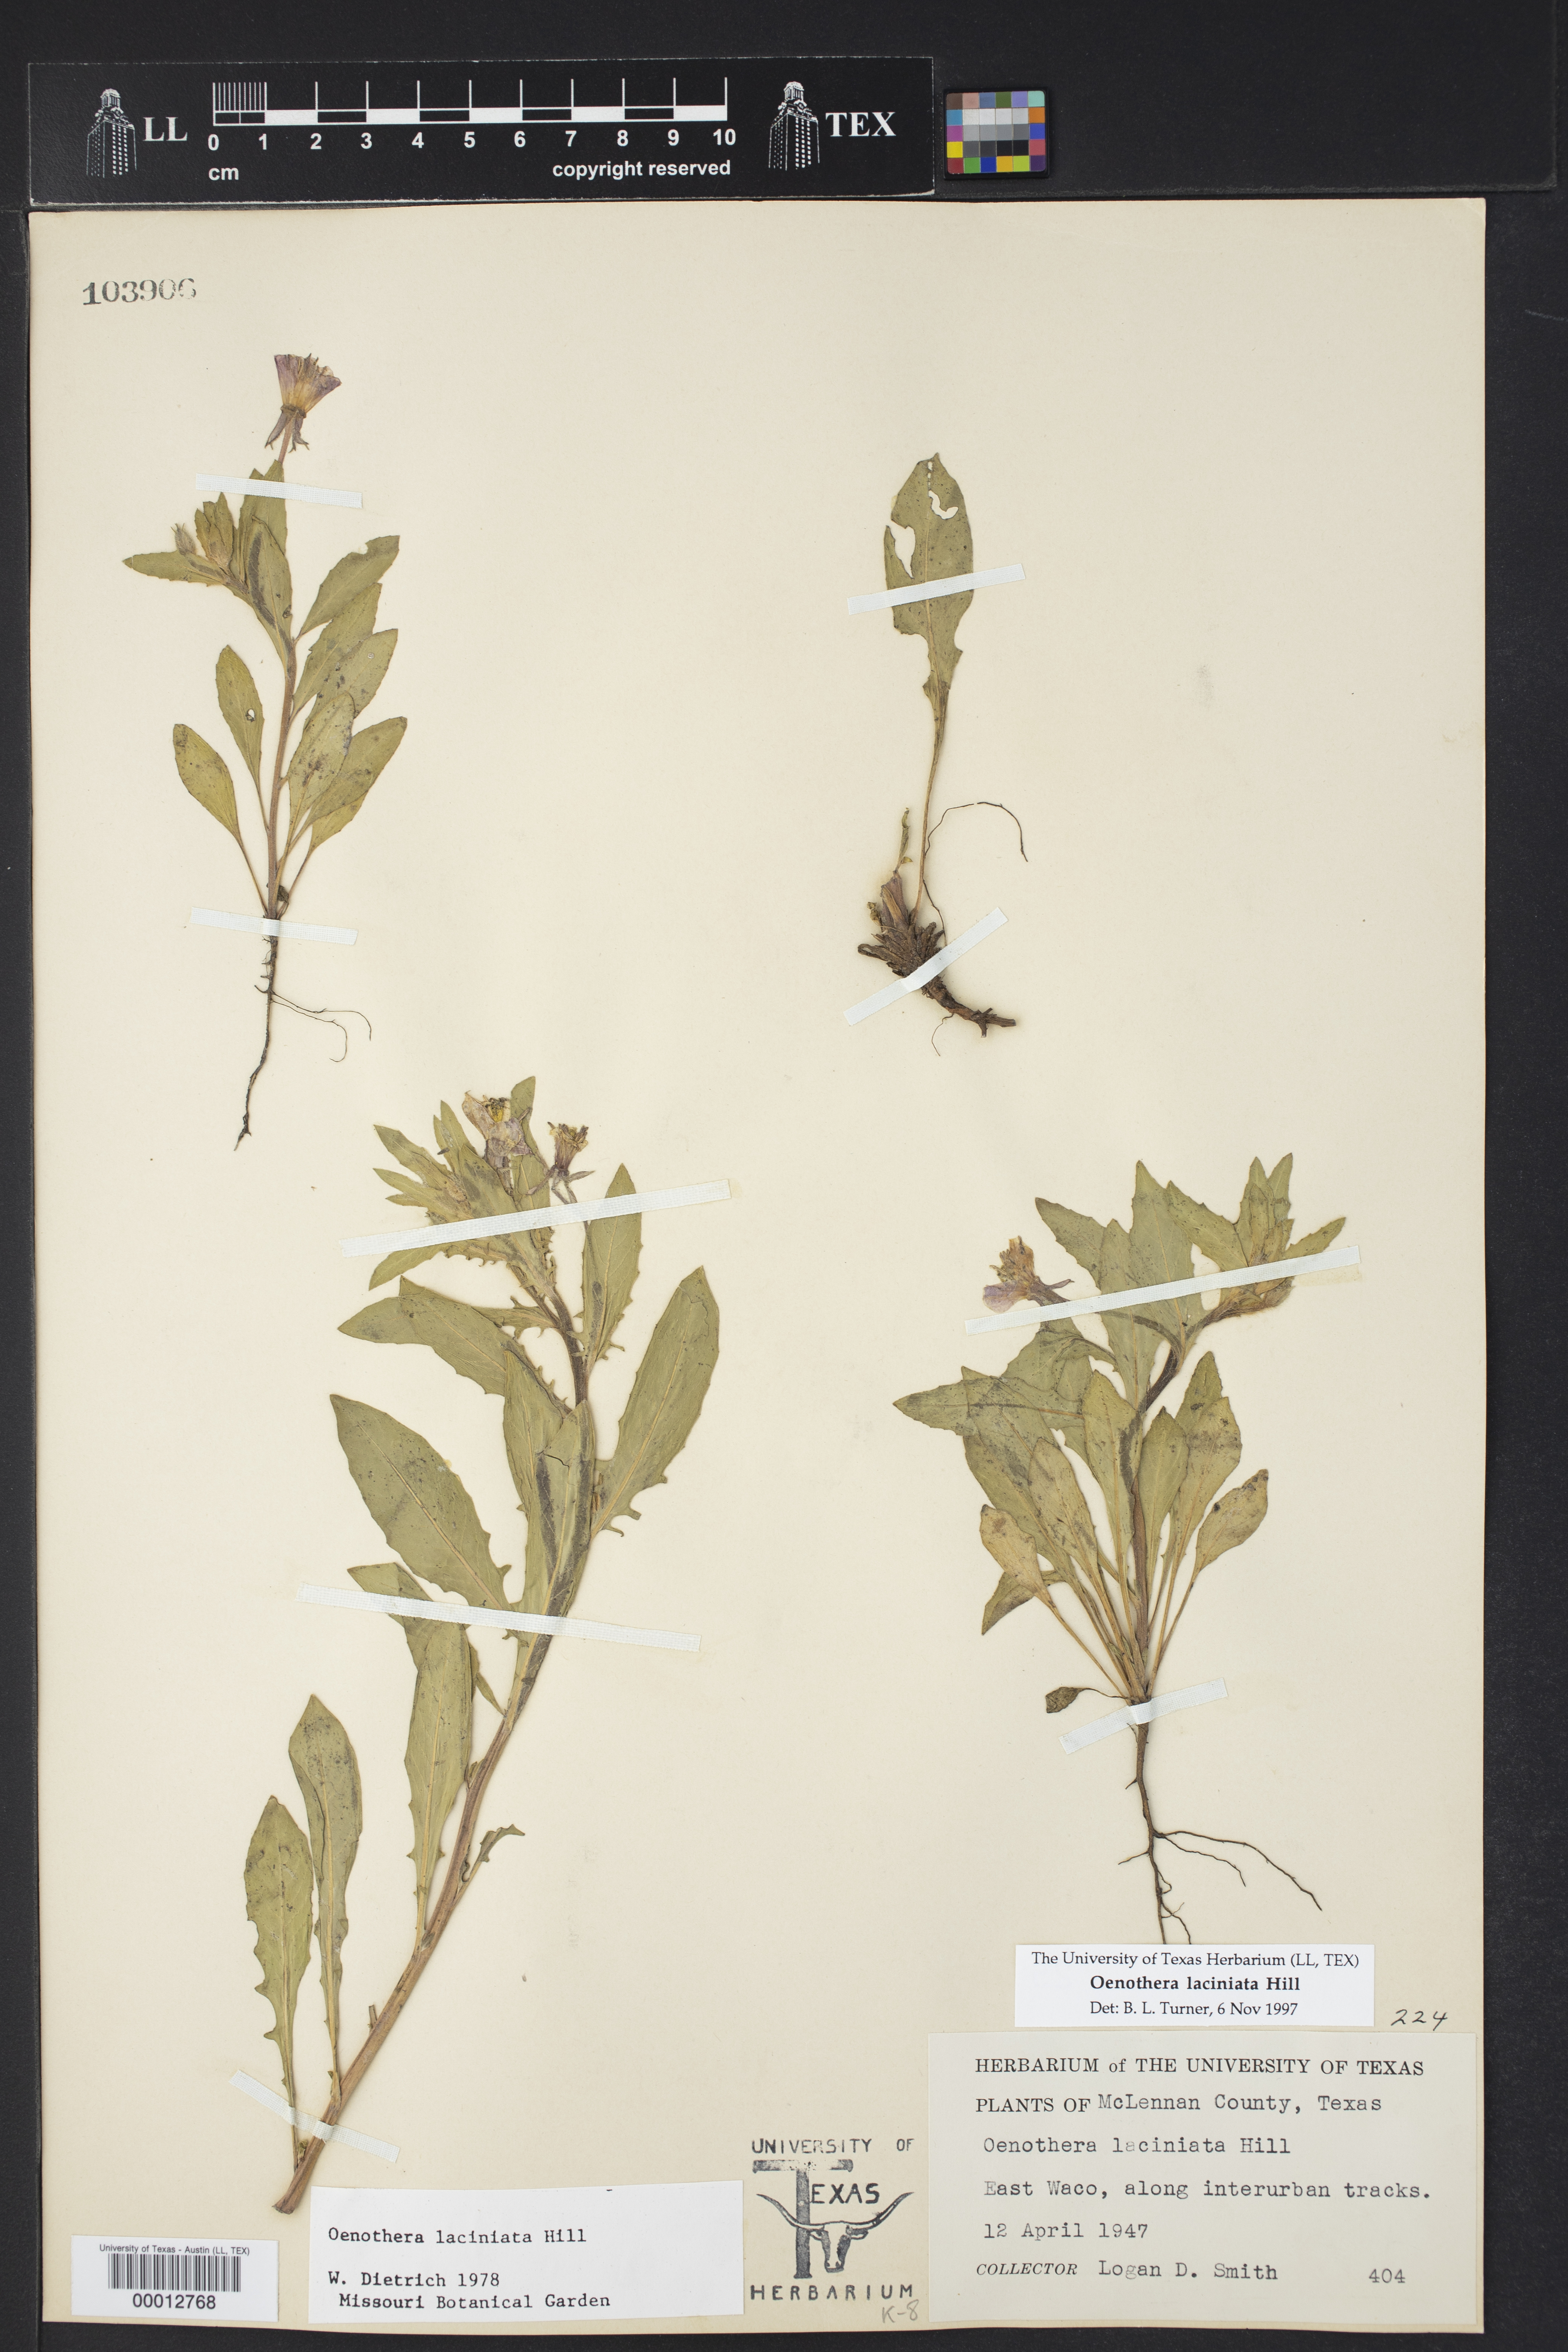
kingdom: Plantae
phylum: Tracheophyta
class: Magnoliopsida
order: Myrtales
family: Onagraceae
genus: Oenothera
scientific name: Oenothera laciniata
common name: Cut-leaved evening-primrose
